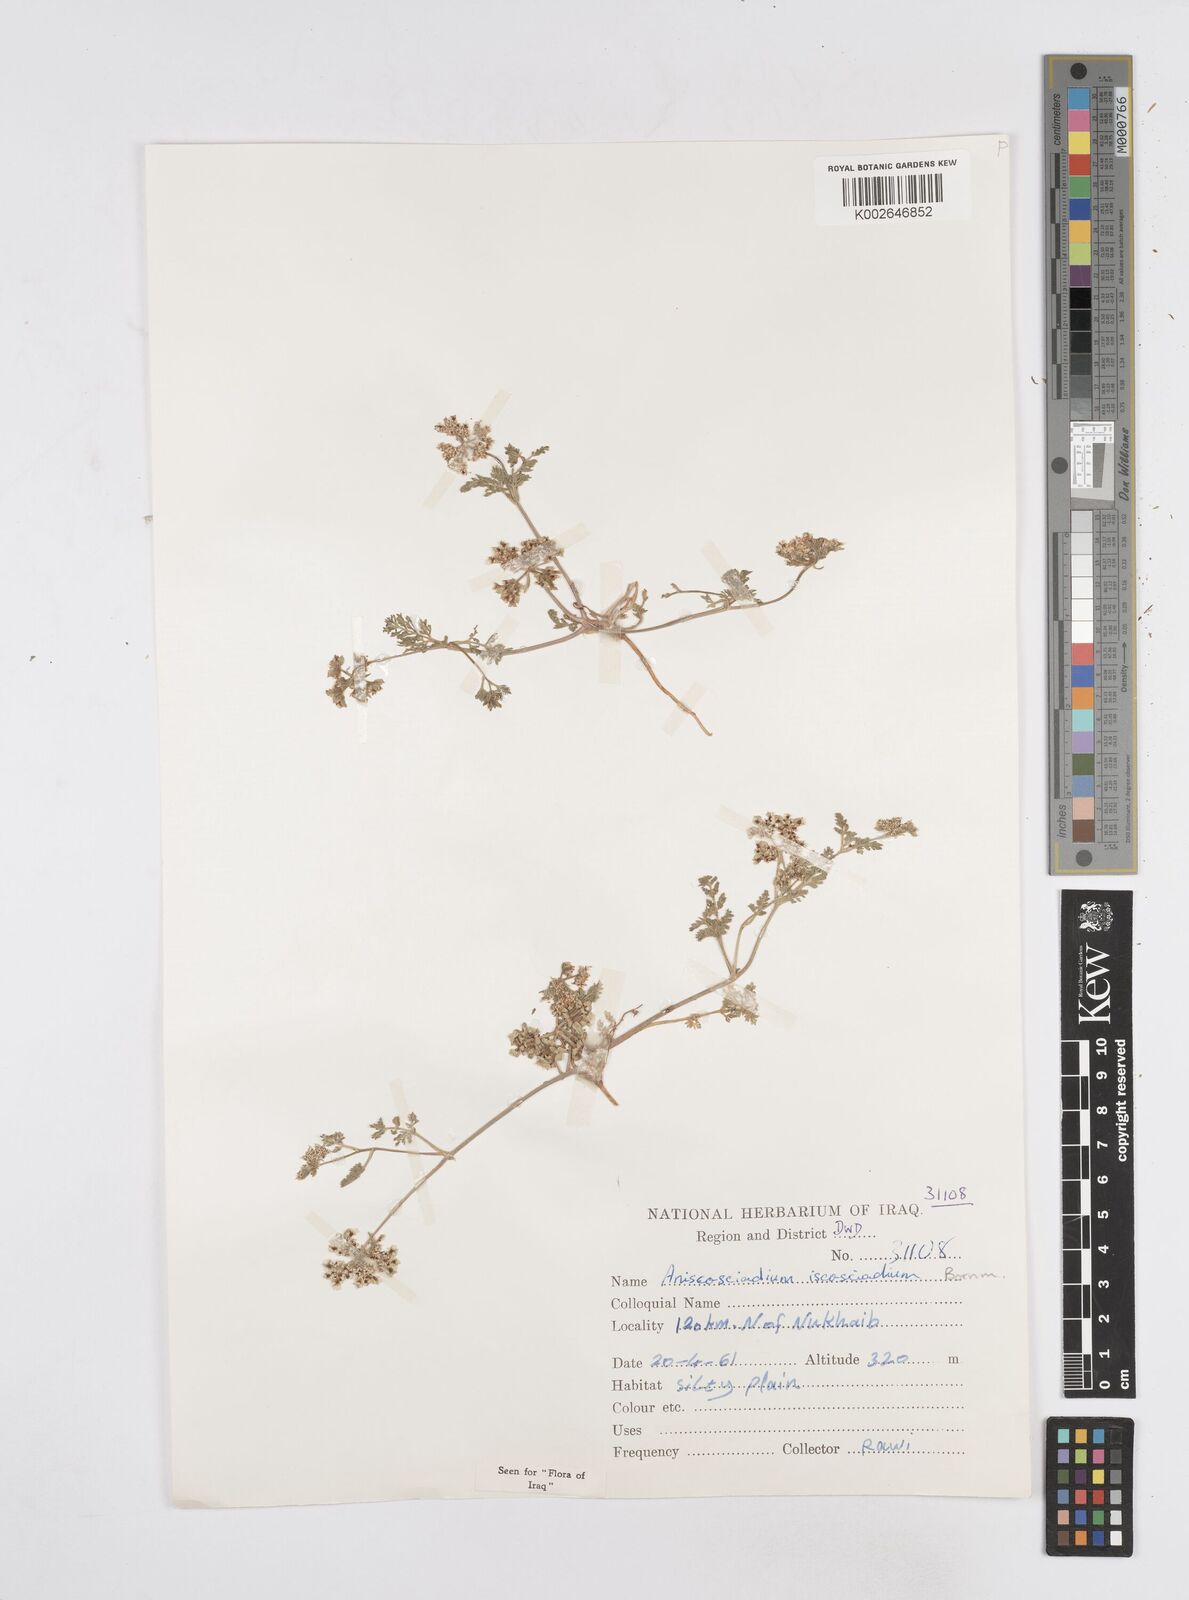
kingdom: Plantae
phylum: Tracheophyta
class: Magnoliopsida
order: Apiales
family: Apiaceae
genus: Anisosciadium
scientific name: Anisosciadium isosciadium
